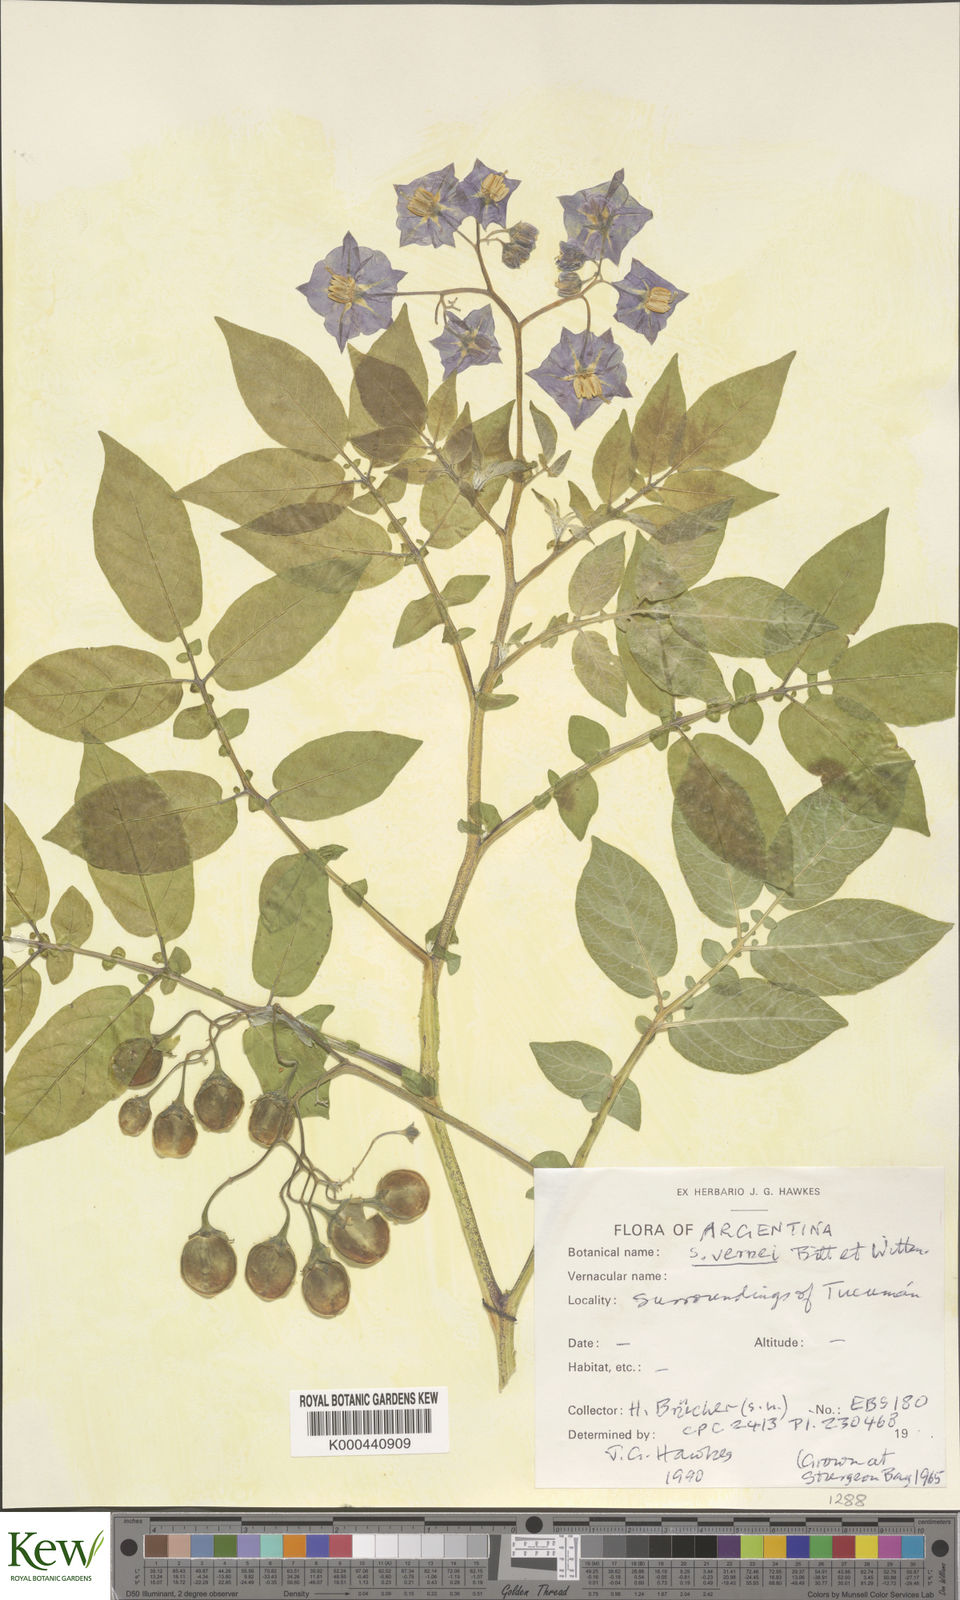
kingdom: Plantae
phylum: Tracheophyta
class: Magnoliopsida
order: Solanales
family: Solanaceae
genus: Solanum
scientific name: Solanum vernei
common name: Purple potato
